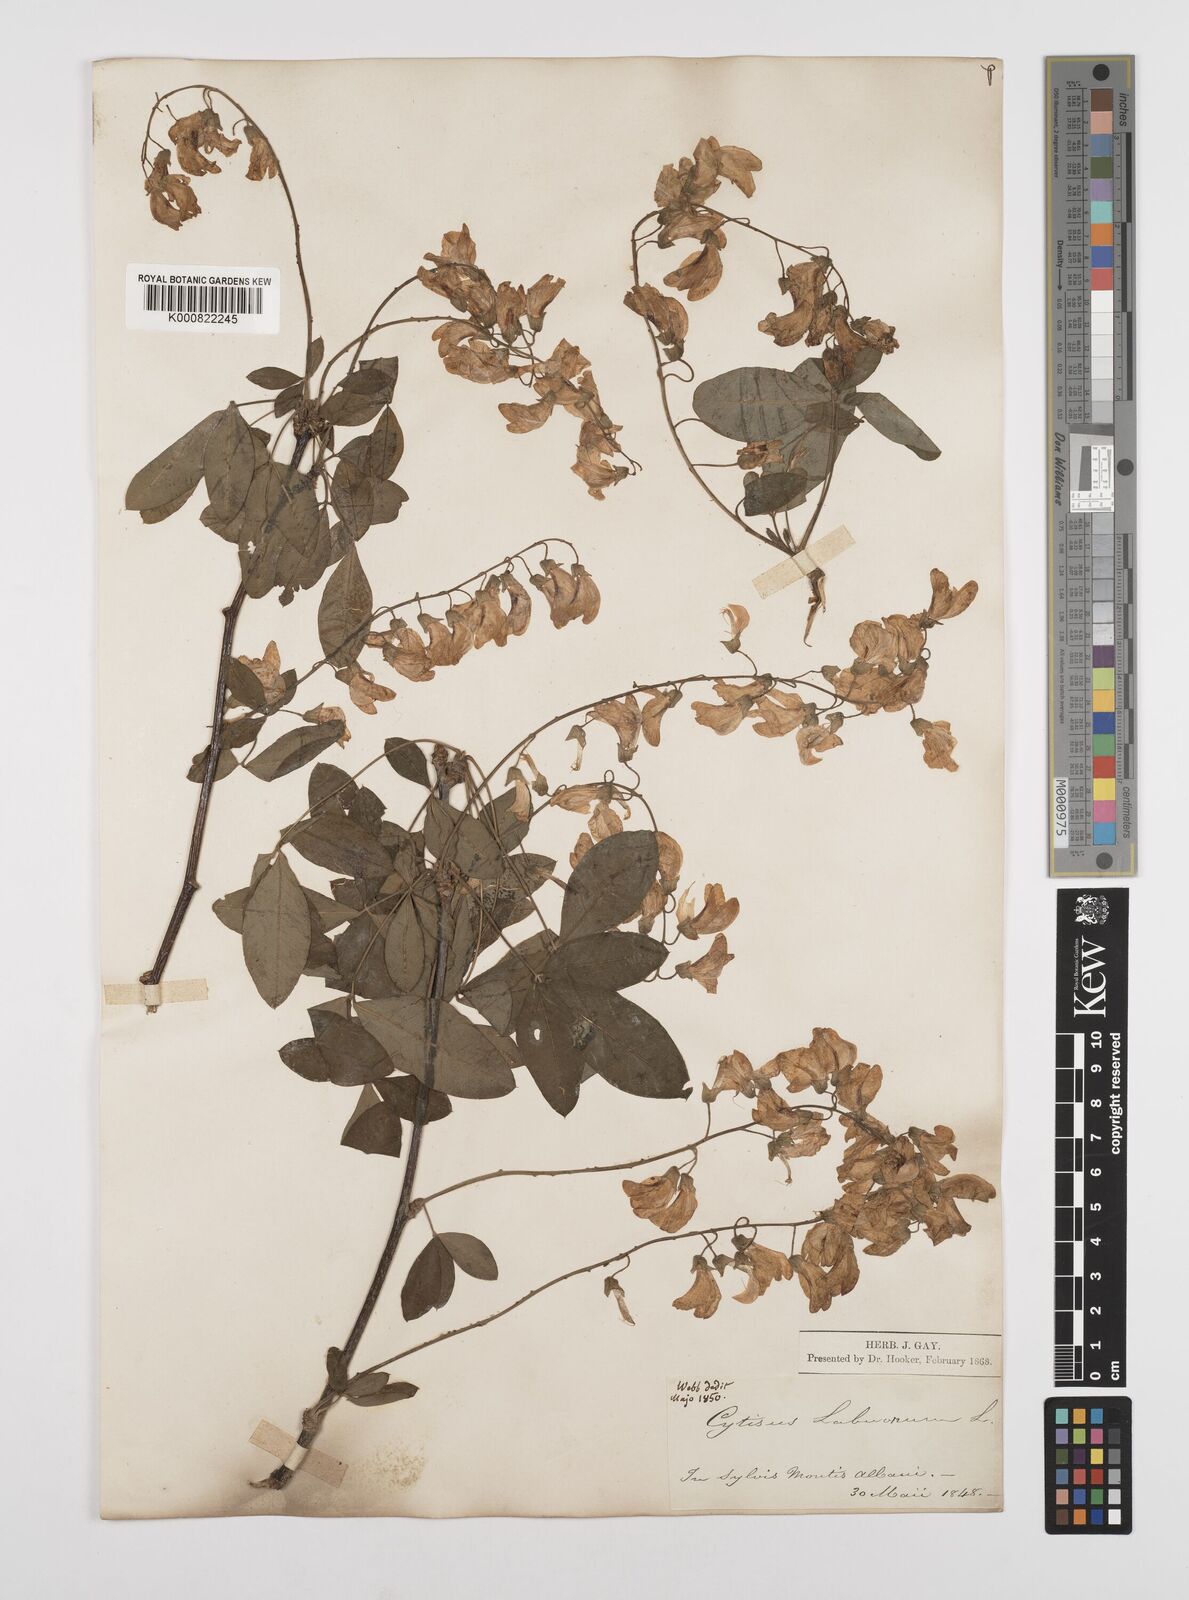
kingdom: Plantae
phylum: Tracheophyta
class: Magnoliopsida
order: Fabales
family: Fabaceae
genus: Laburnum
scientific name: Laburnum anagyroides
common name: Laburnum
